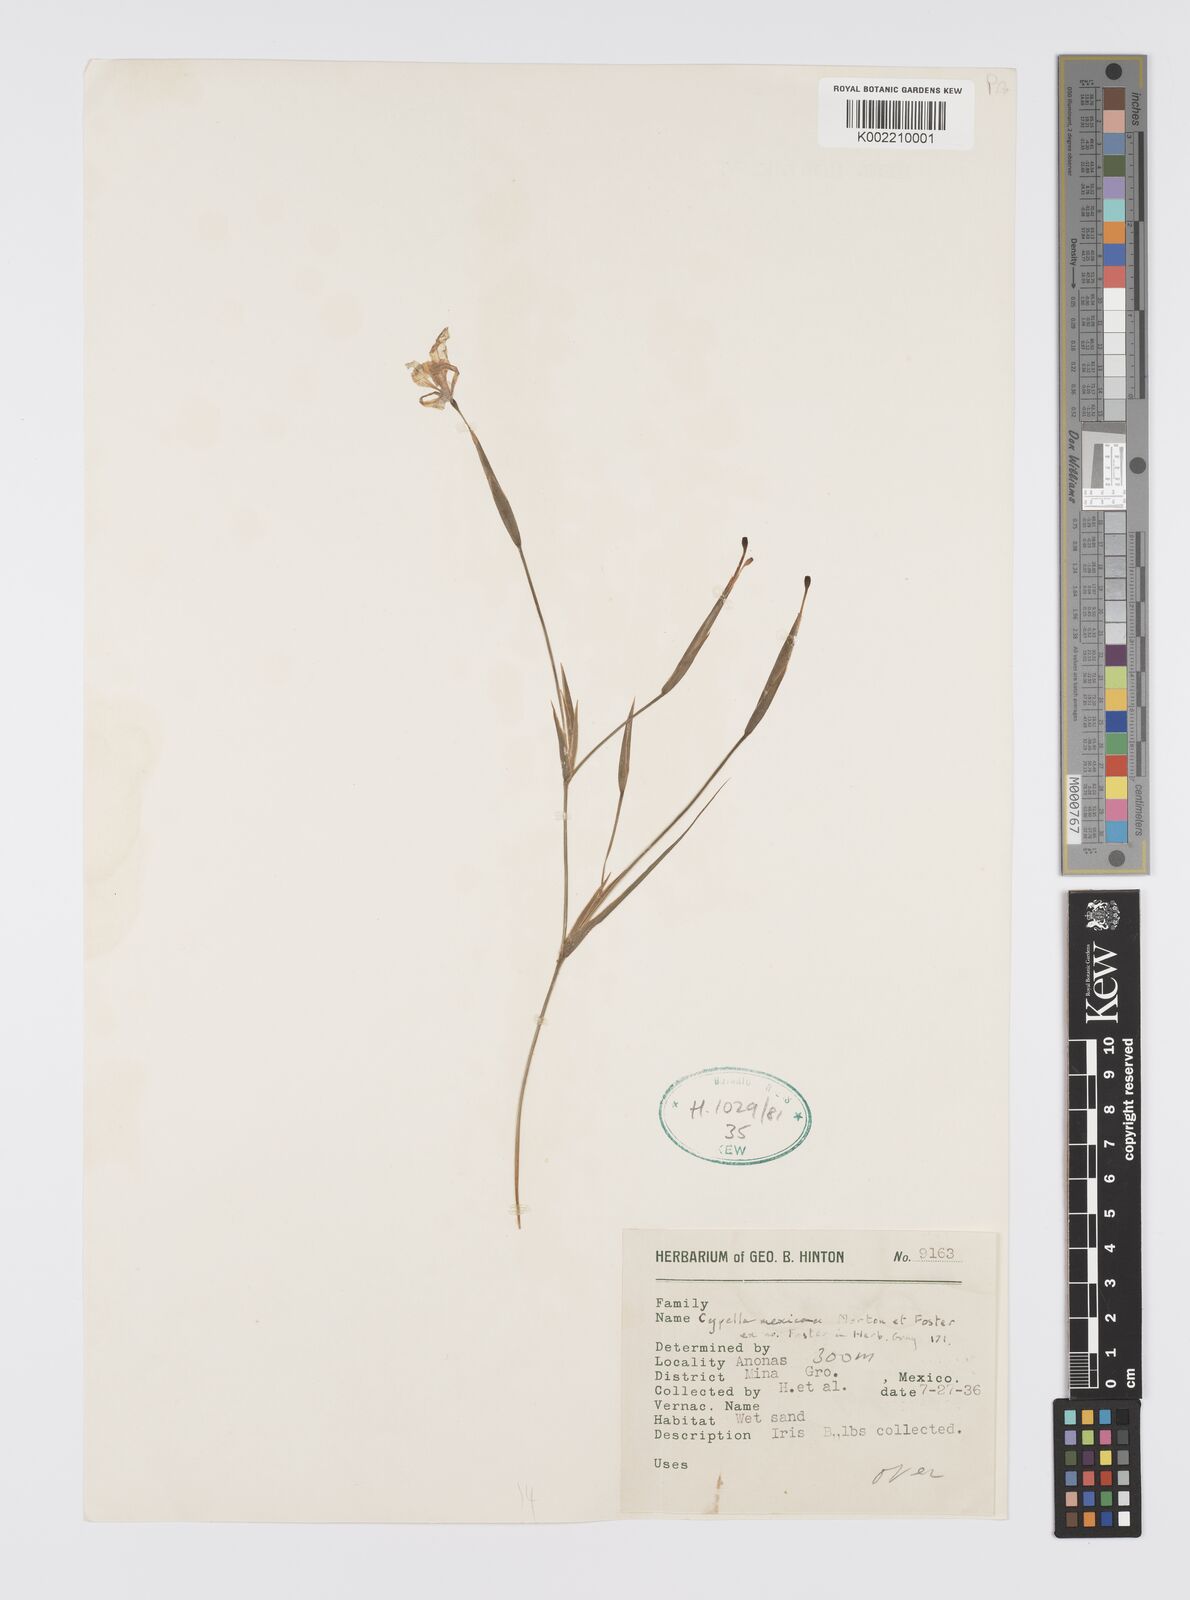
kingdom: Plantae
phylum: Tracheophyta
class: Liliopsida
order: Asparagales
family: Iridaceae
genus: Larentia
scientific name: Larentia mexicana
